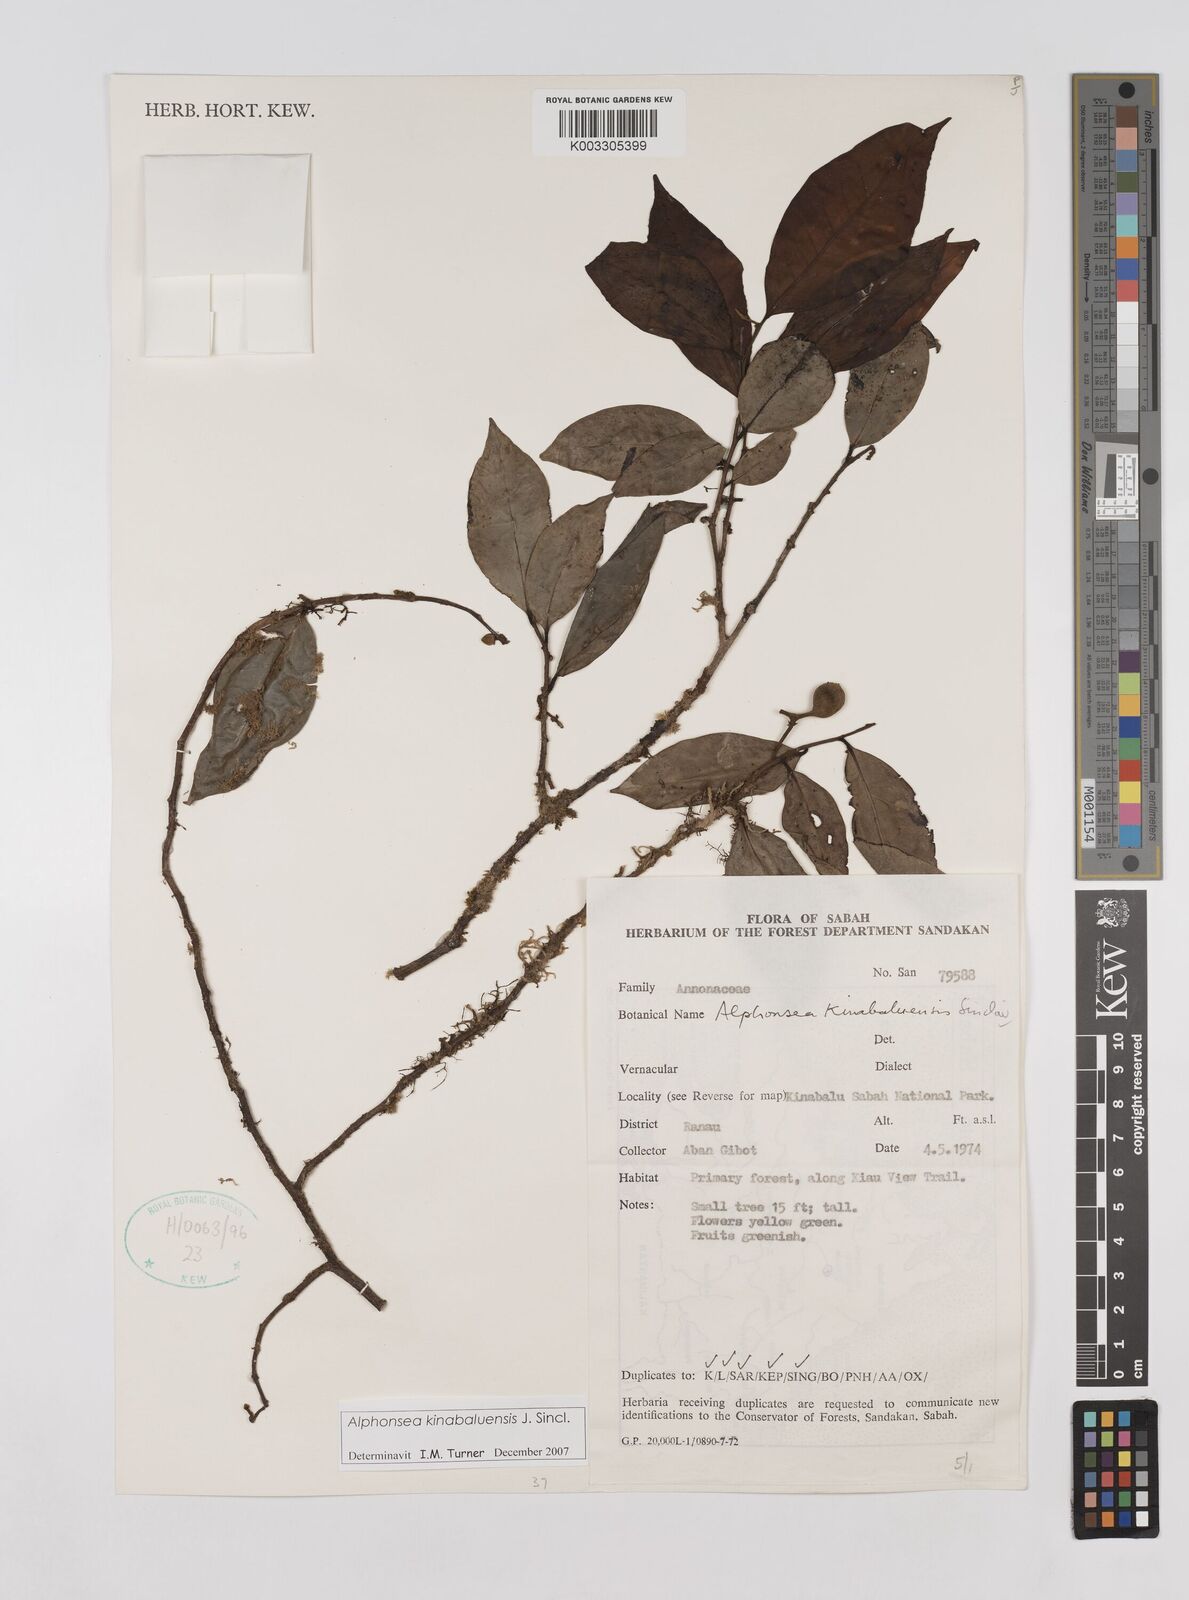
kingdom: Plantae
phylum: Tracheophyta
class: Magnoliopsida
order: Magnoliales
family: Annonaceae
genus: Alphonsea
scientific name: Alphonsea kinabaluensis
